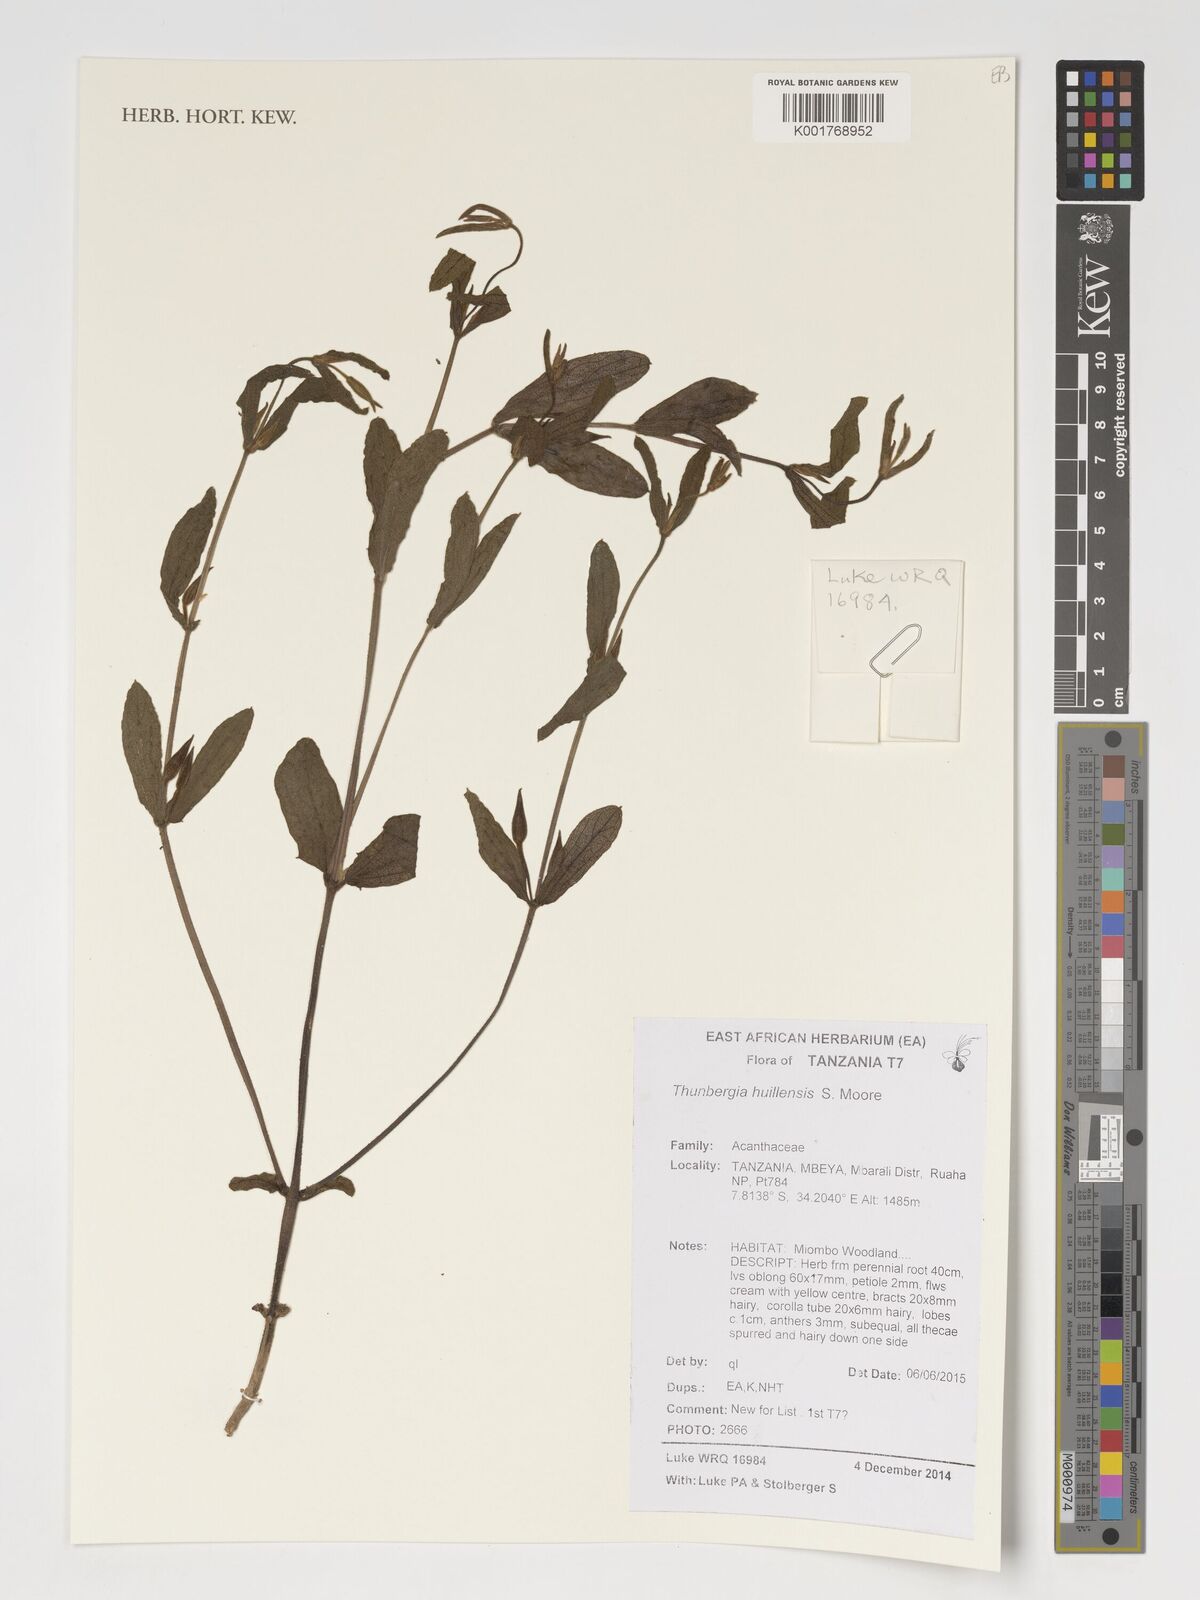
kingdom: Plantae
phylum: Tracheophyta
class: Magnoliopsida
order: Lamiales
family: Acanthaceae
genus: Thunbergia
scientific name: Thunbergia huillensis
